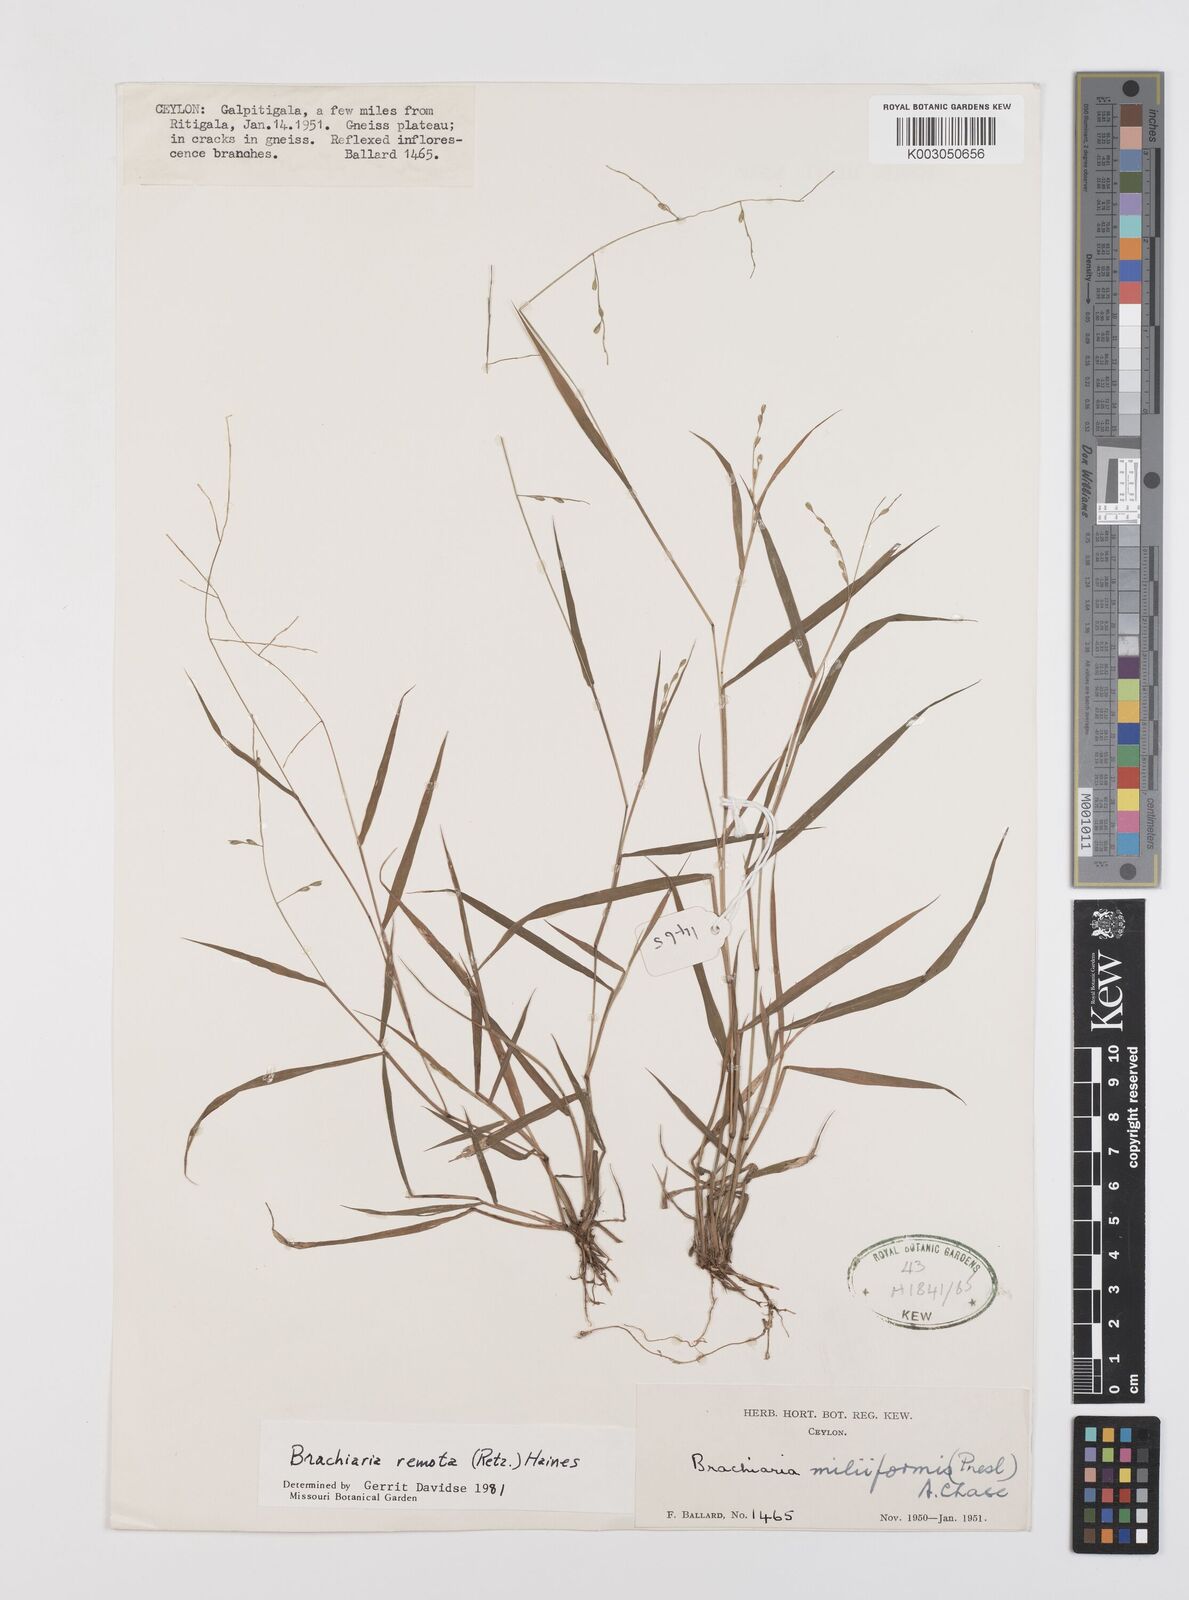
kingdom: Plantae
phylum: Tracheophyta
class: Liliopsida
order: Poales
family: Poaceae
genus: Urochloa
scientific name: Urochloa Brachiaria remota
